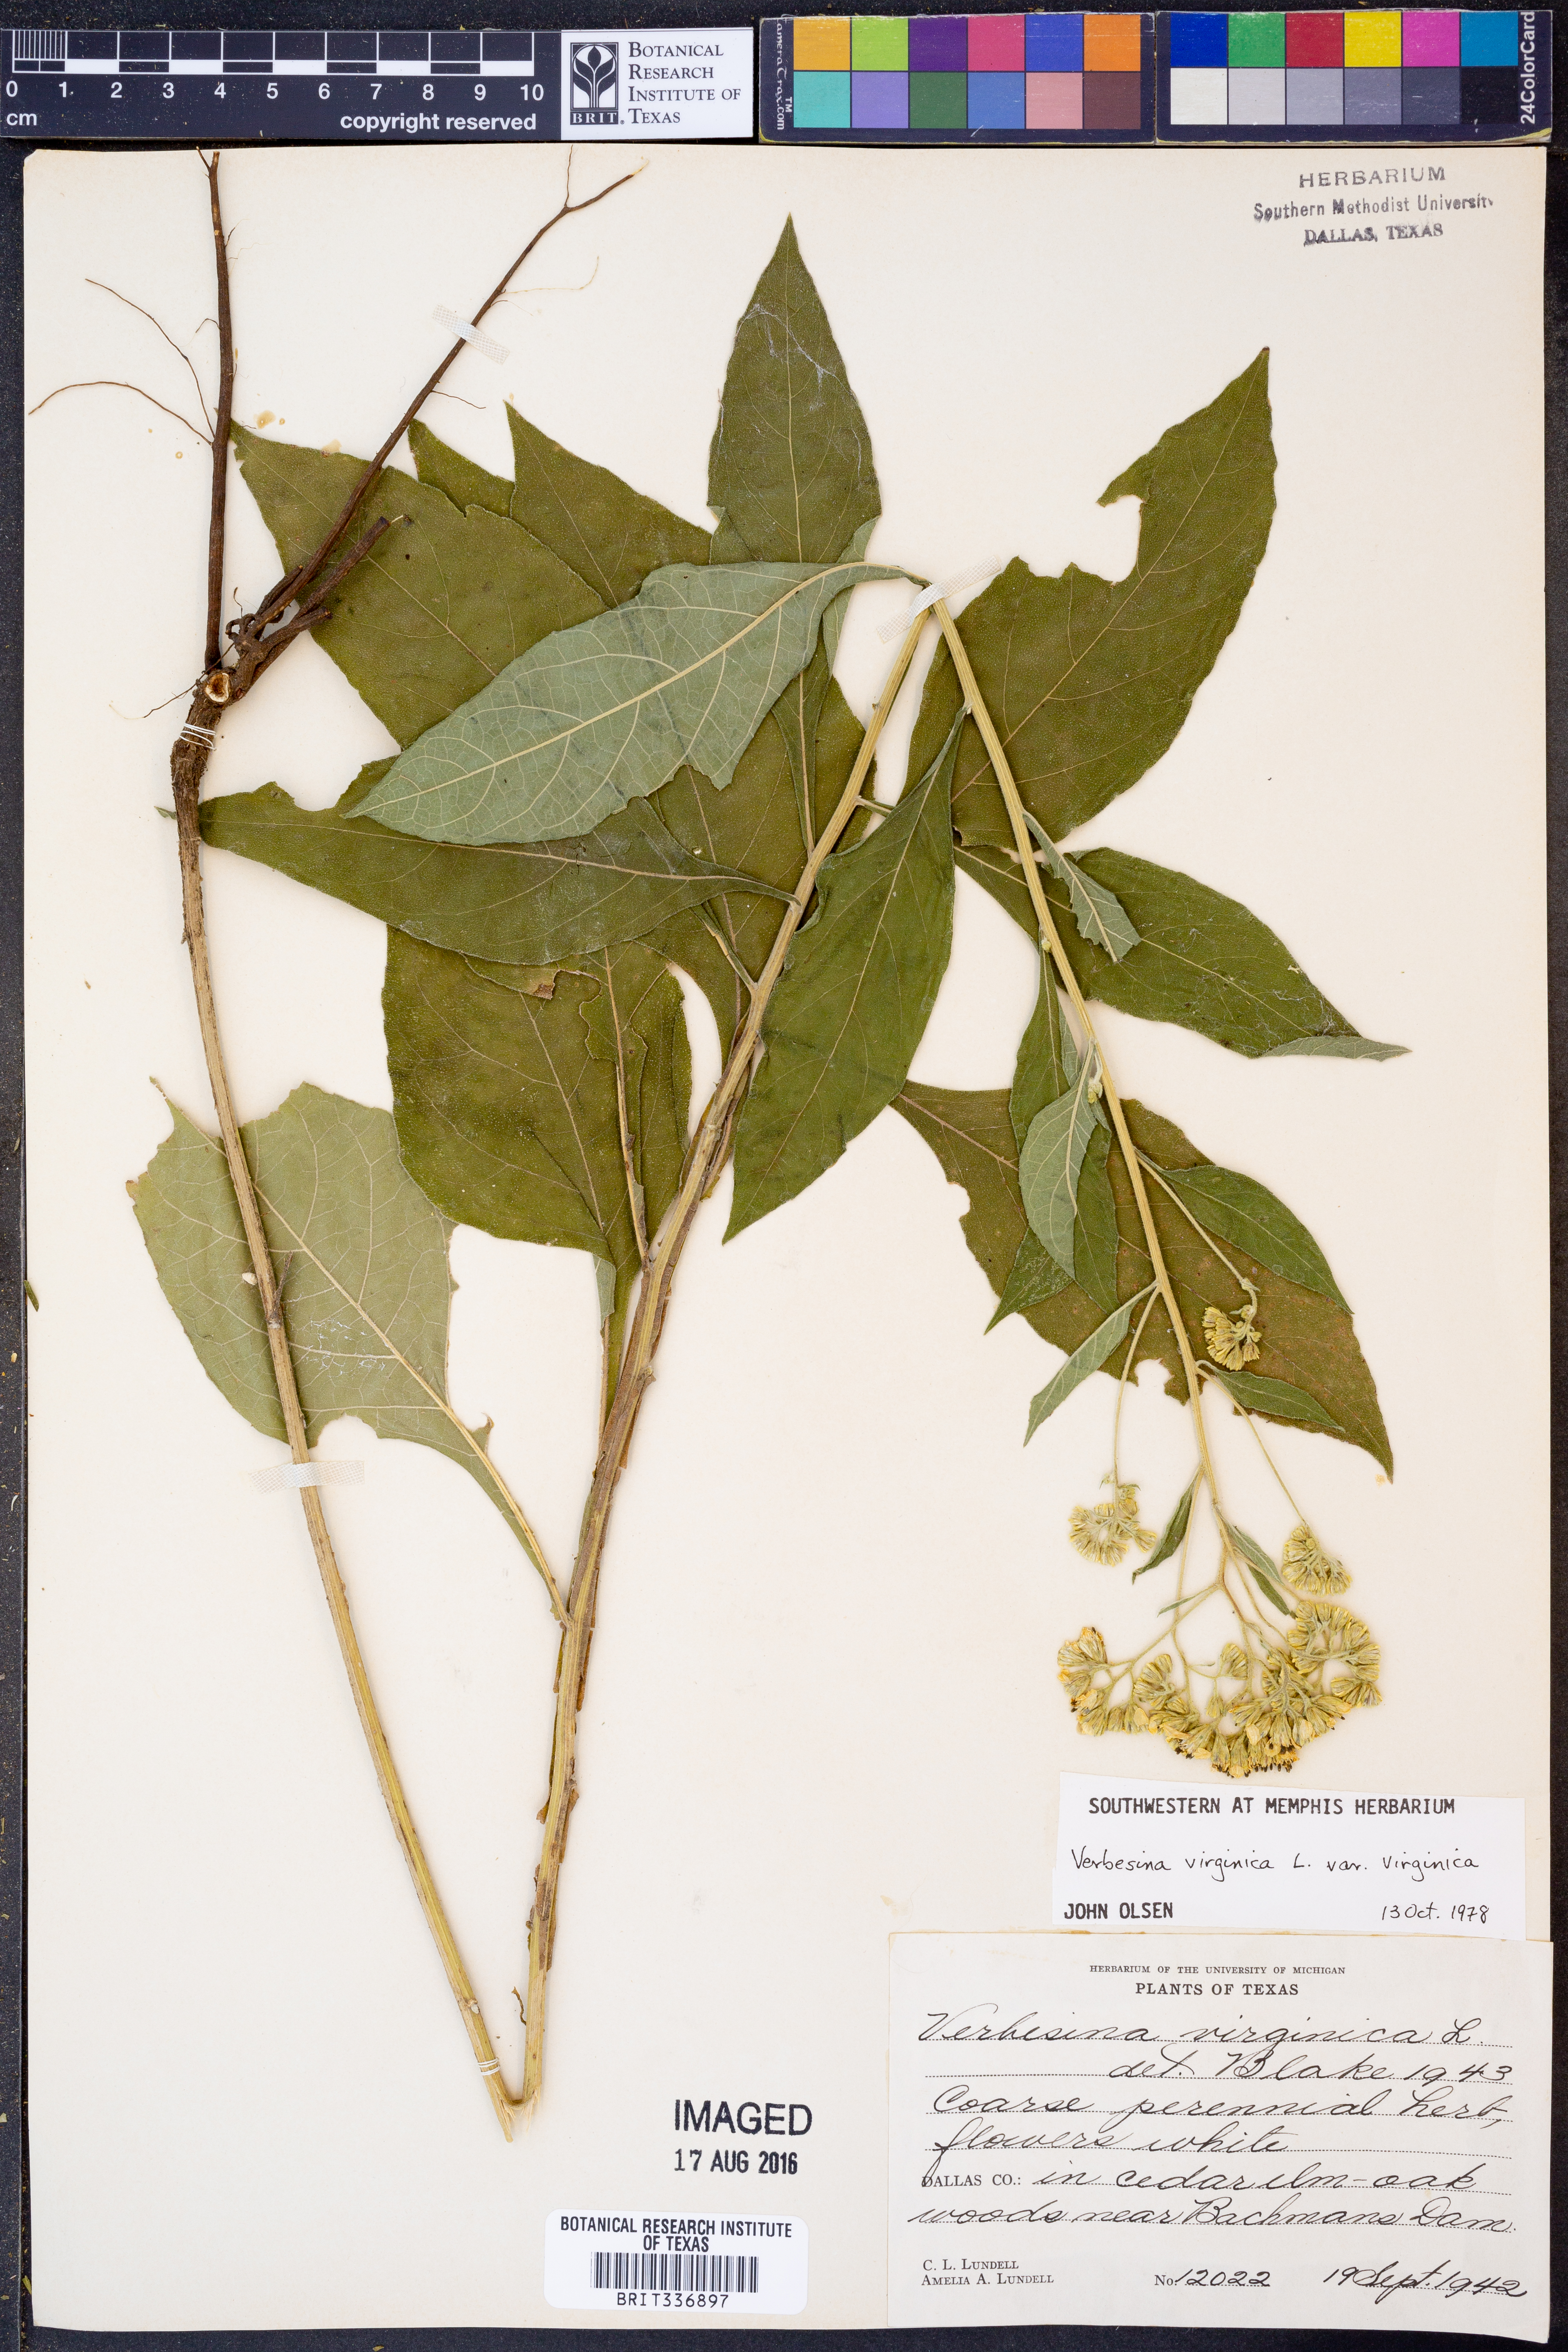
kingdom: Plantae
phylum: Tracheophyta
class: Magnoliopsida
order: Asterales
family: Asteraceae
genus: Verbesina
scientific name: Verbesina virginica
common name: Frostweed
